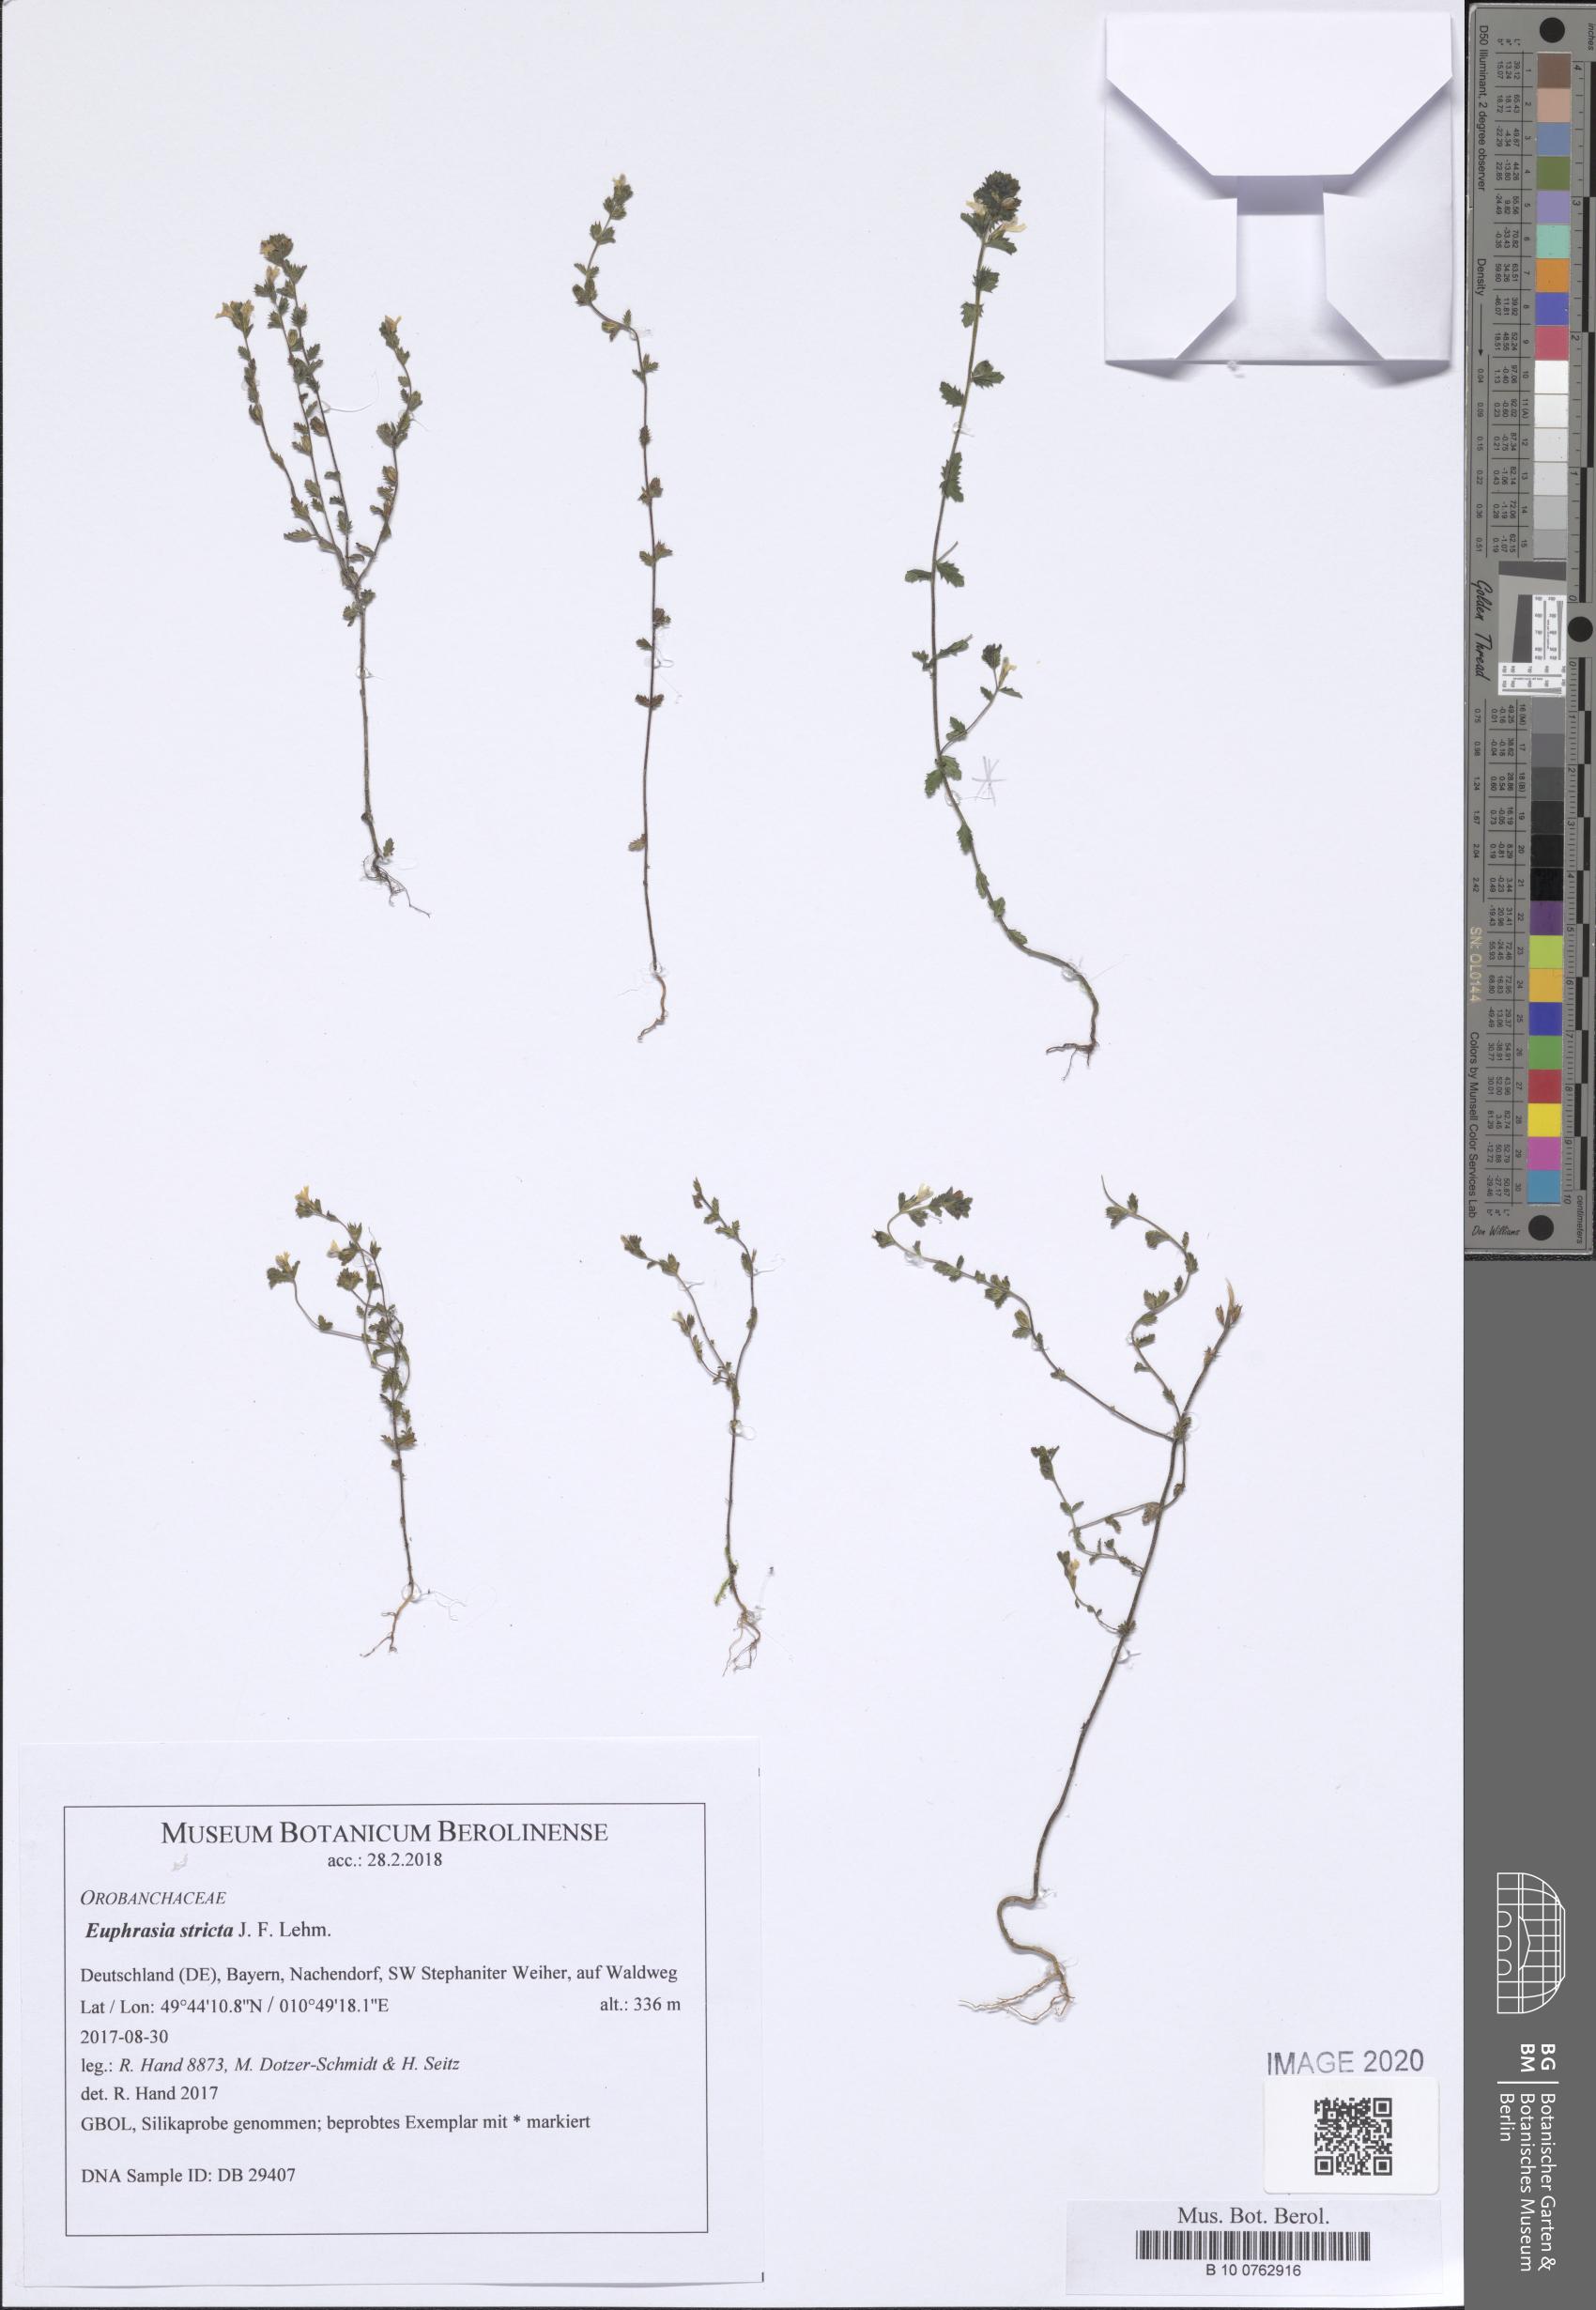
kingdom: Plantae
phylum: Tracheophyta
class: Magnoliopsida
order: Lamiales
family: Orobanchaceae
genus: Euphrasia
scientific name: Euphrasia stricta
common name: Drug eyebright
